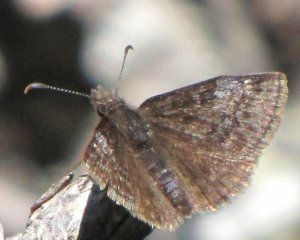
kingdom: Animalia
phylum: Arthropoda
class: Insecta
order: Lepidoptera
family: Hesperiidae
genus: Erynnis
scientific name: Erynnis icelus
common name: Dreamy Duskywing
